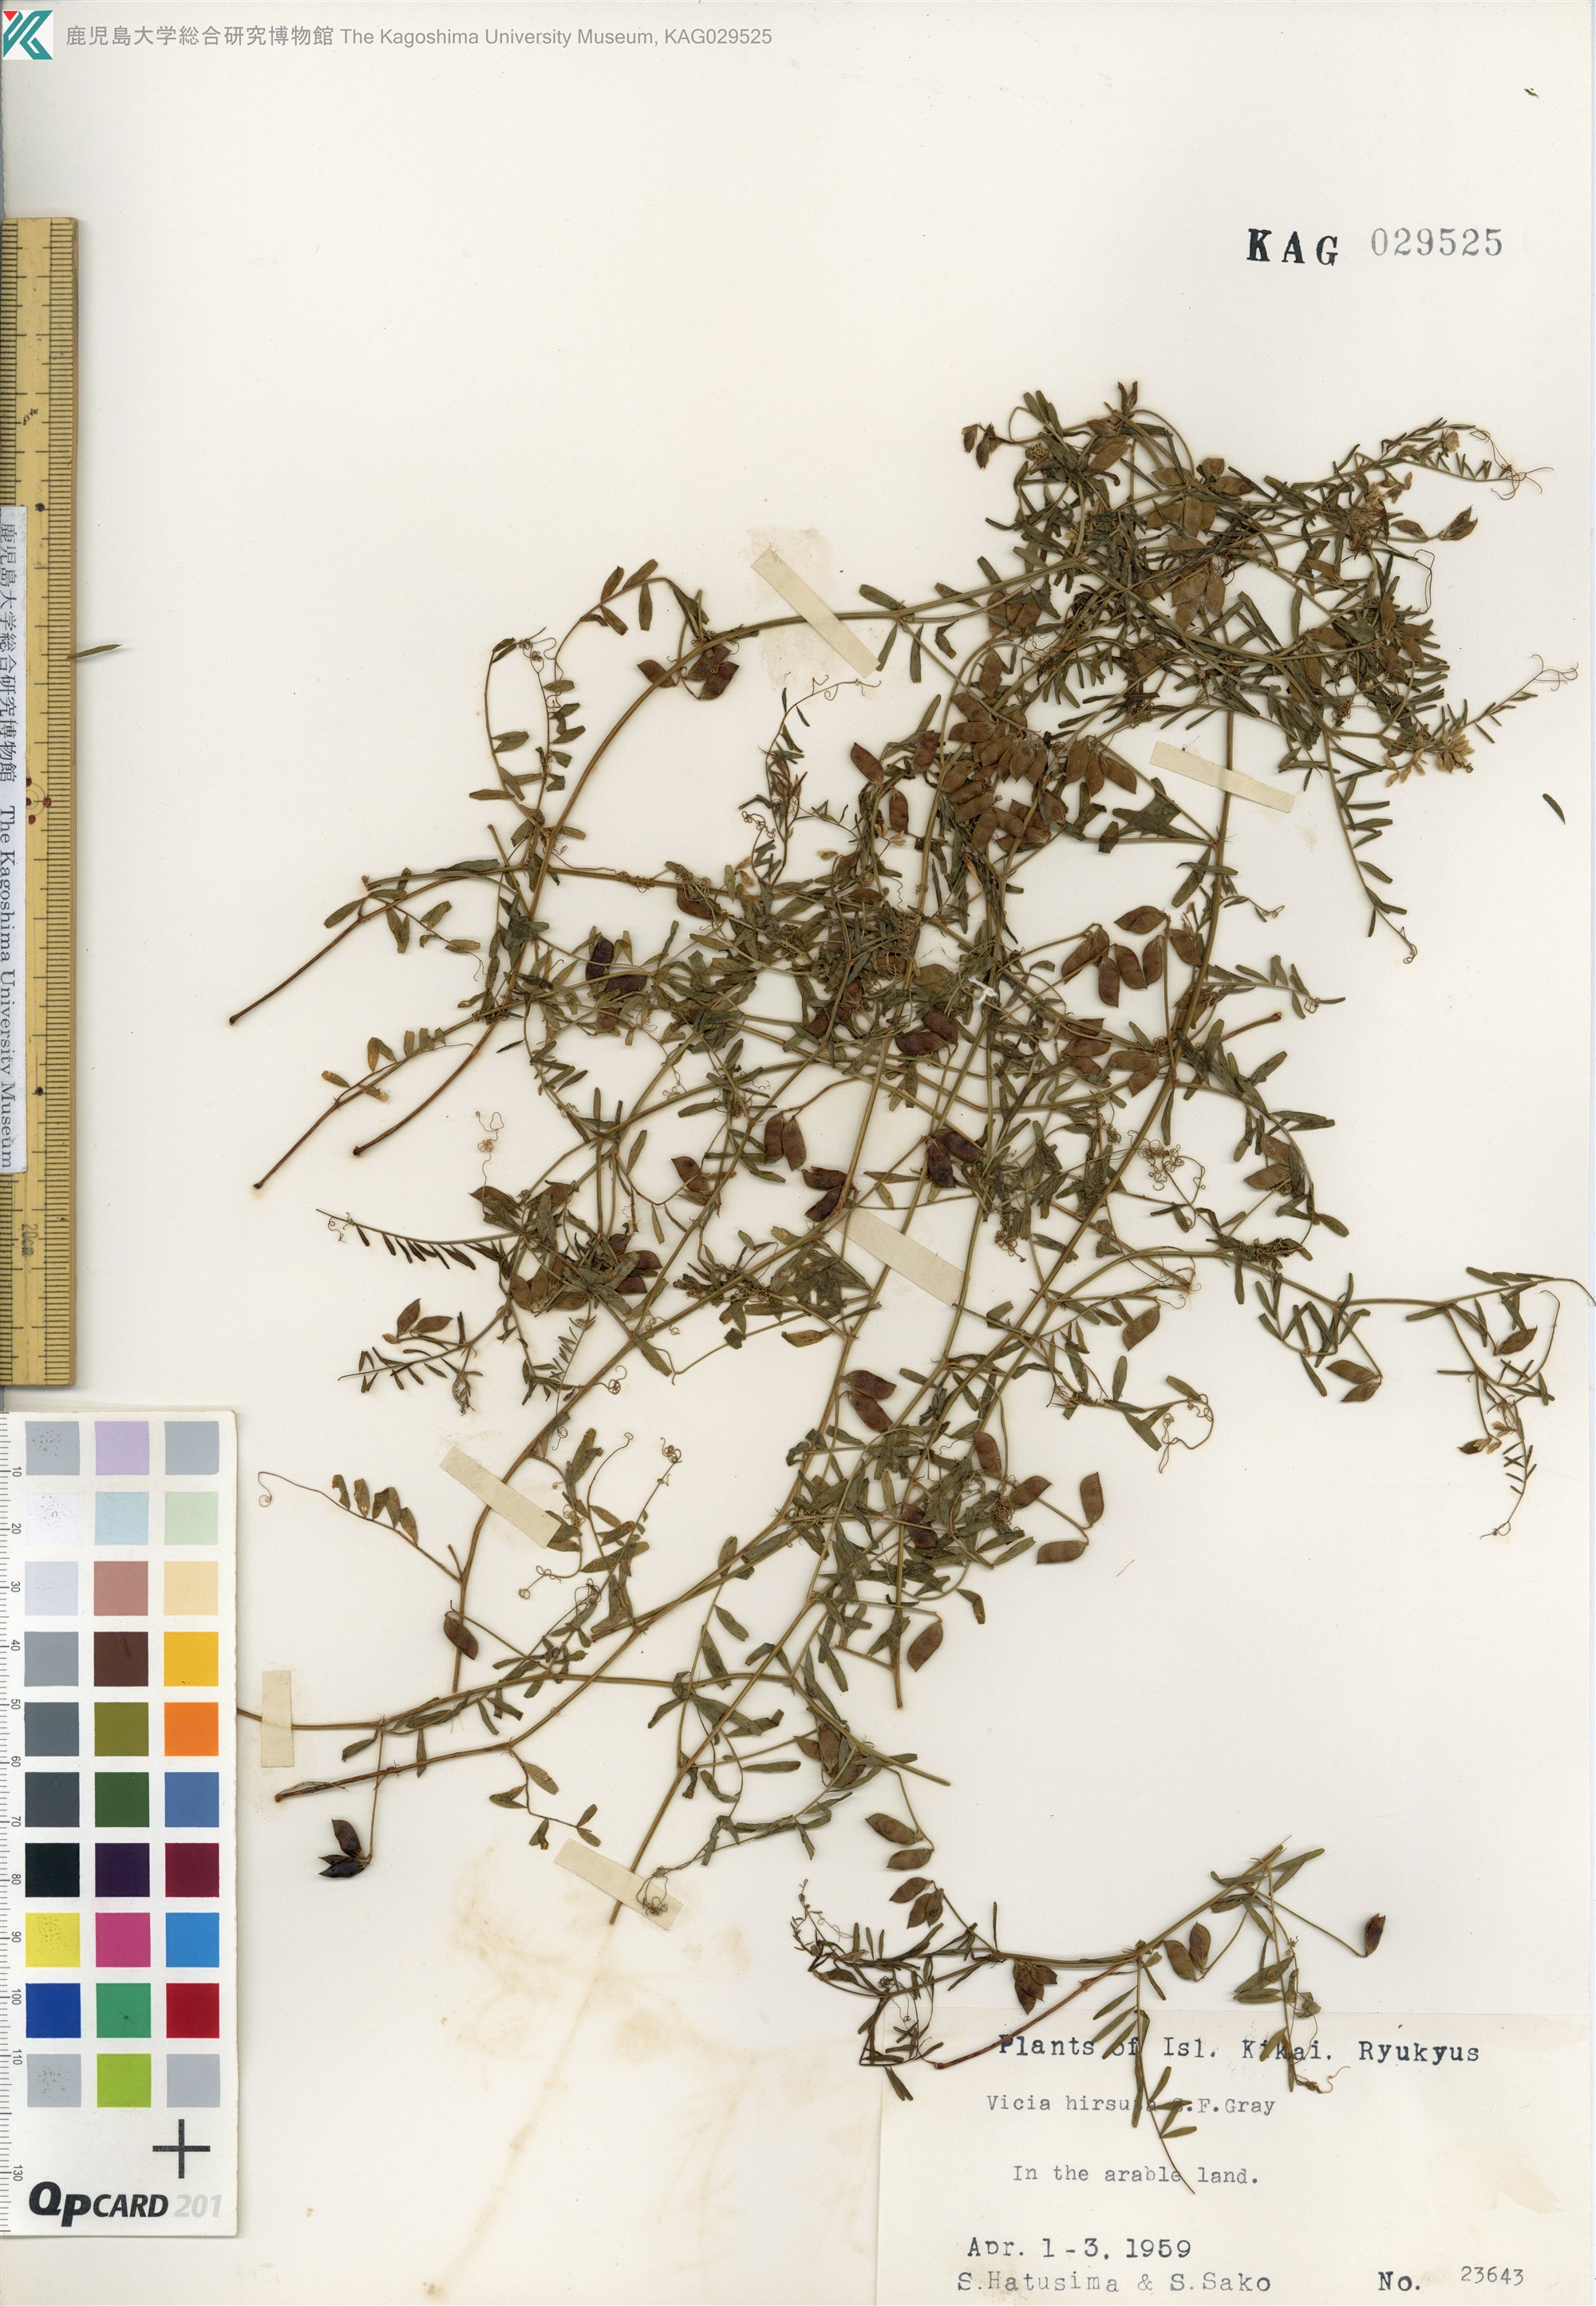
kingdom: Plantae
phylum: Tracheophyta
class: Magnoliopsida
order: Fabales
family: Fabaceae
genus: Vicia
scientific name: Vicia hirsuta
